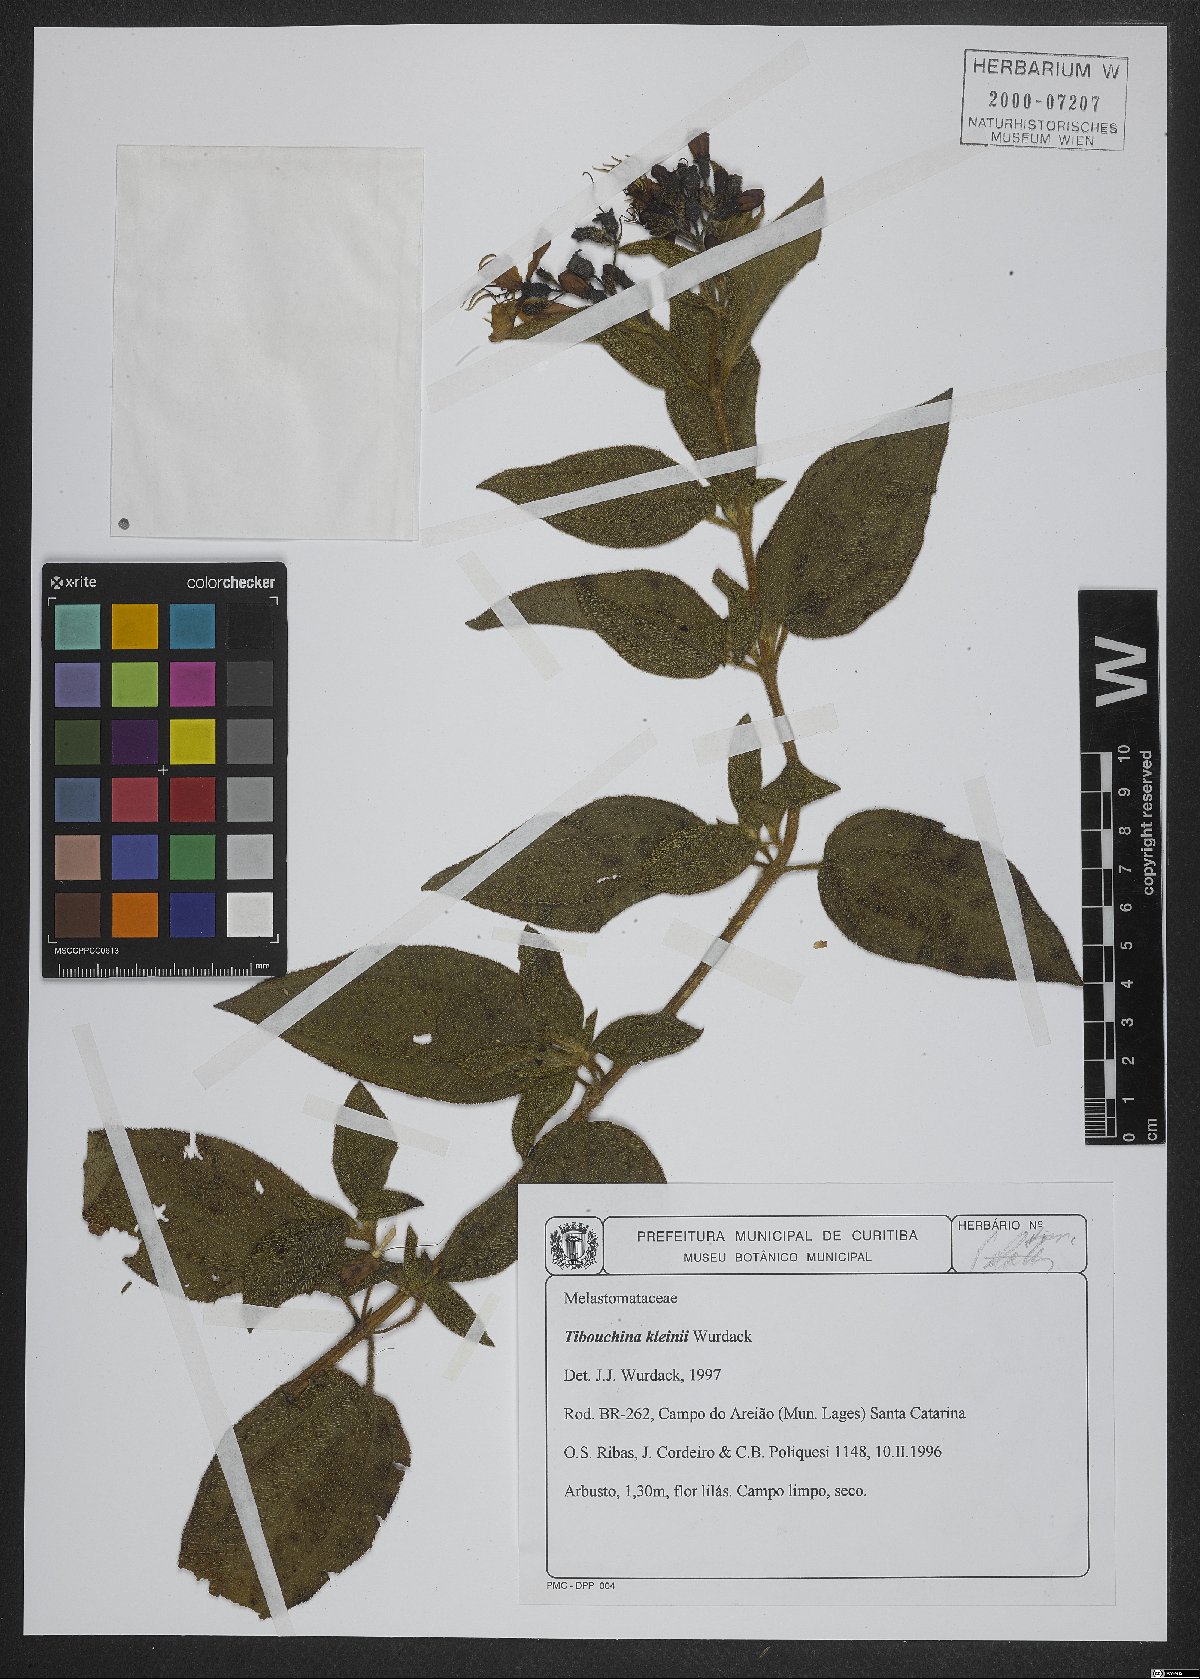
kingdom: Plantae
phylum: Tracheophyta
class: Magnoliopsida
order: Myrtales
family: Melastomataceae
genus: Pleroma
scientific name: Pleroma kleinii
